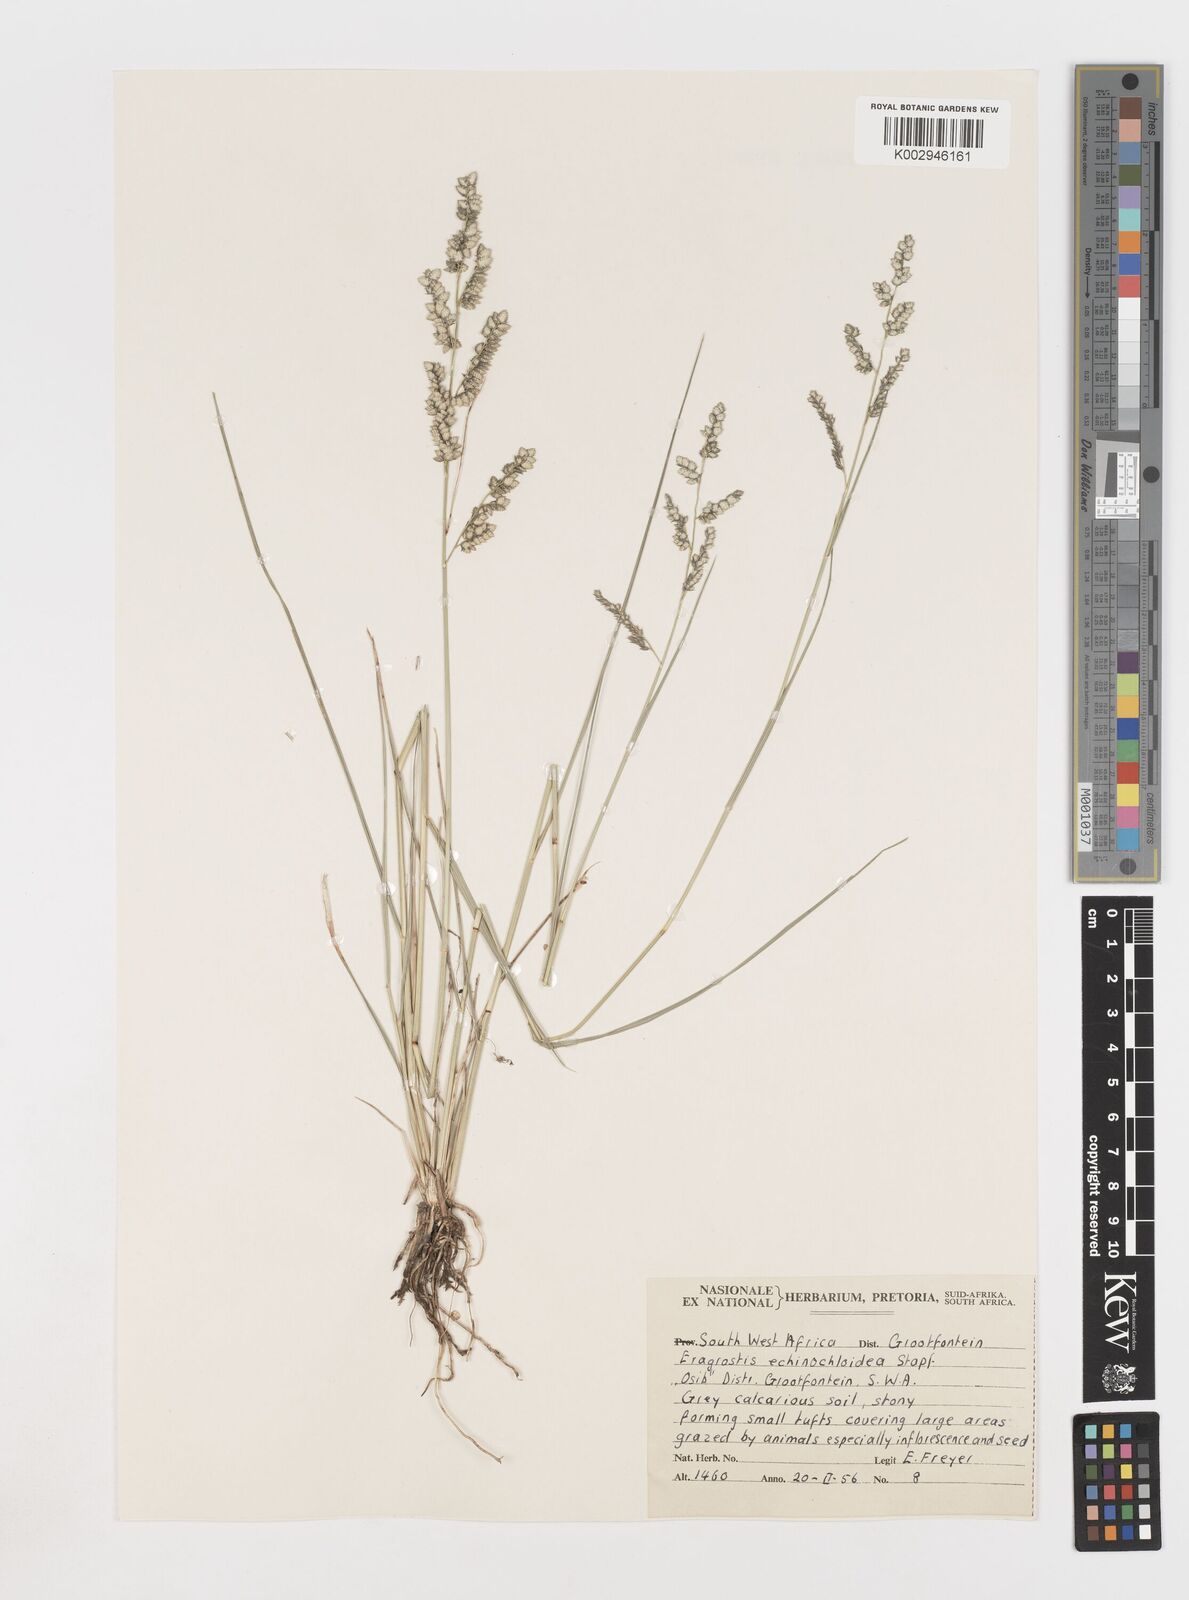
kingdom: Plantae
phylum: Tracheophyta
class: Liliopsida
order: Poales
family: Poaceae
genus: Eragrostis
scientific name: Eragrostis echinochloidea
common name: African lovegrass
